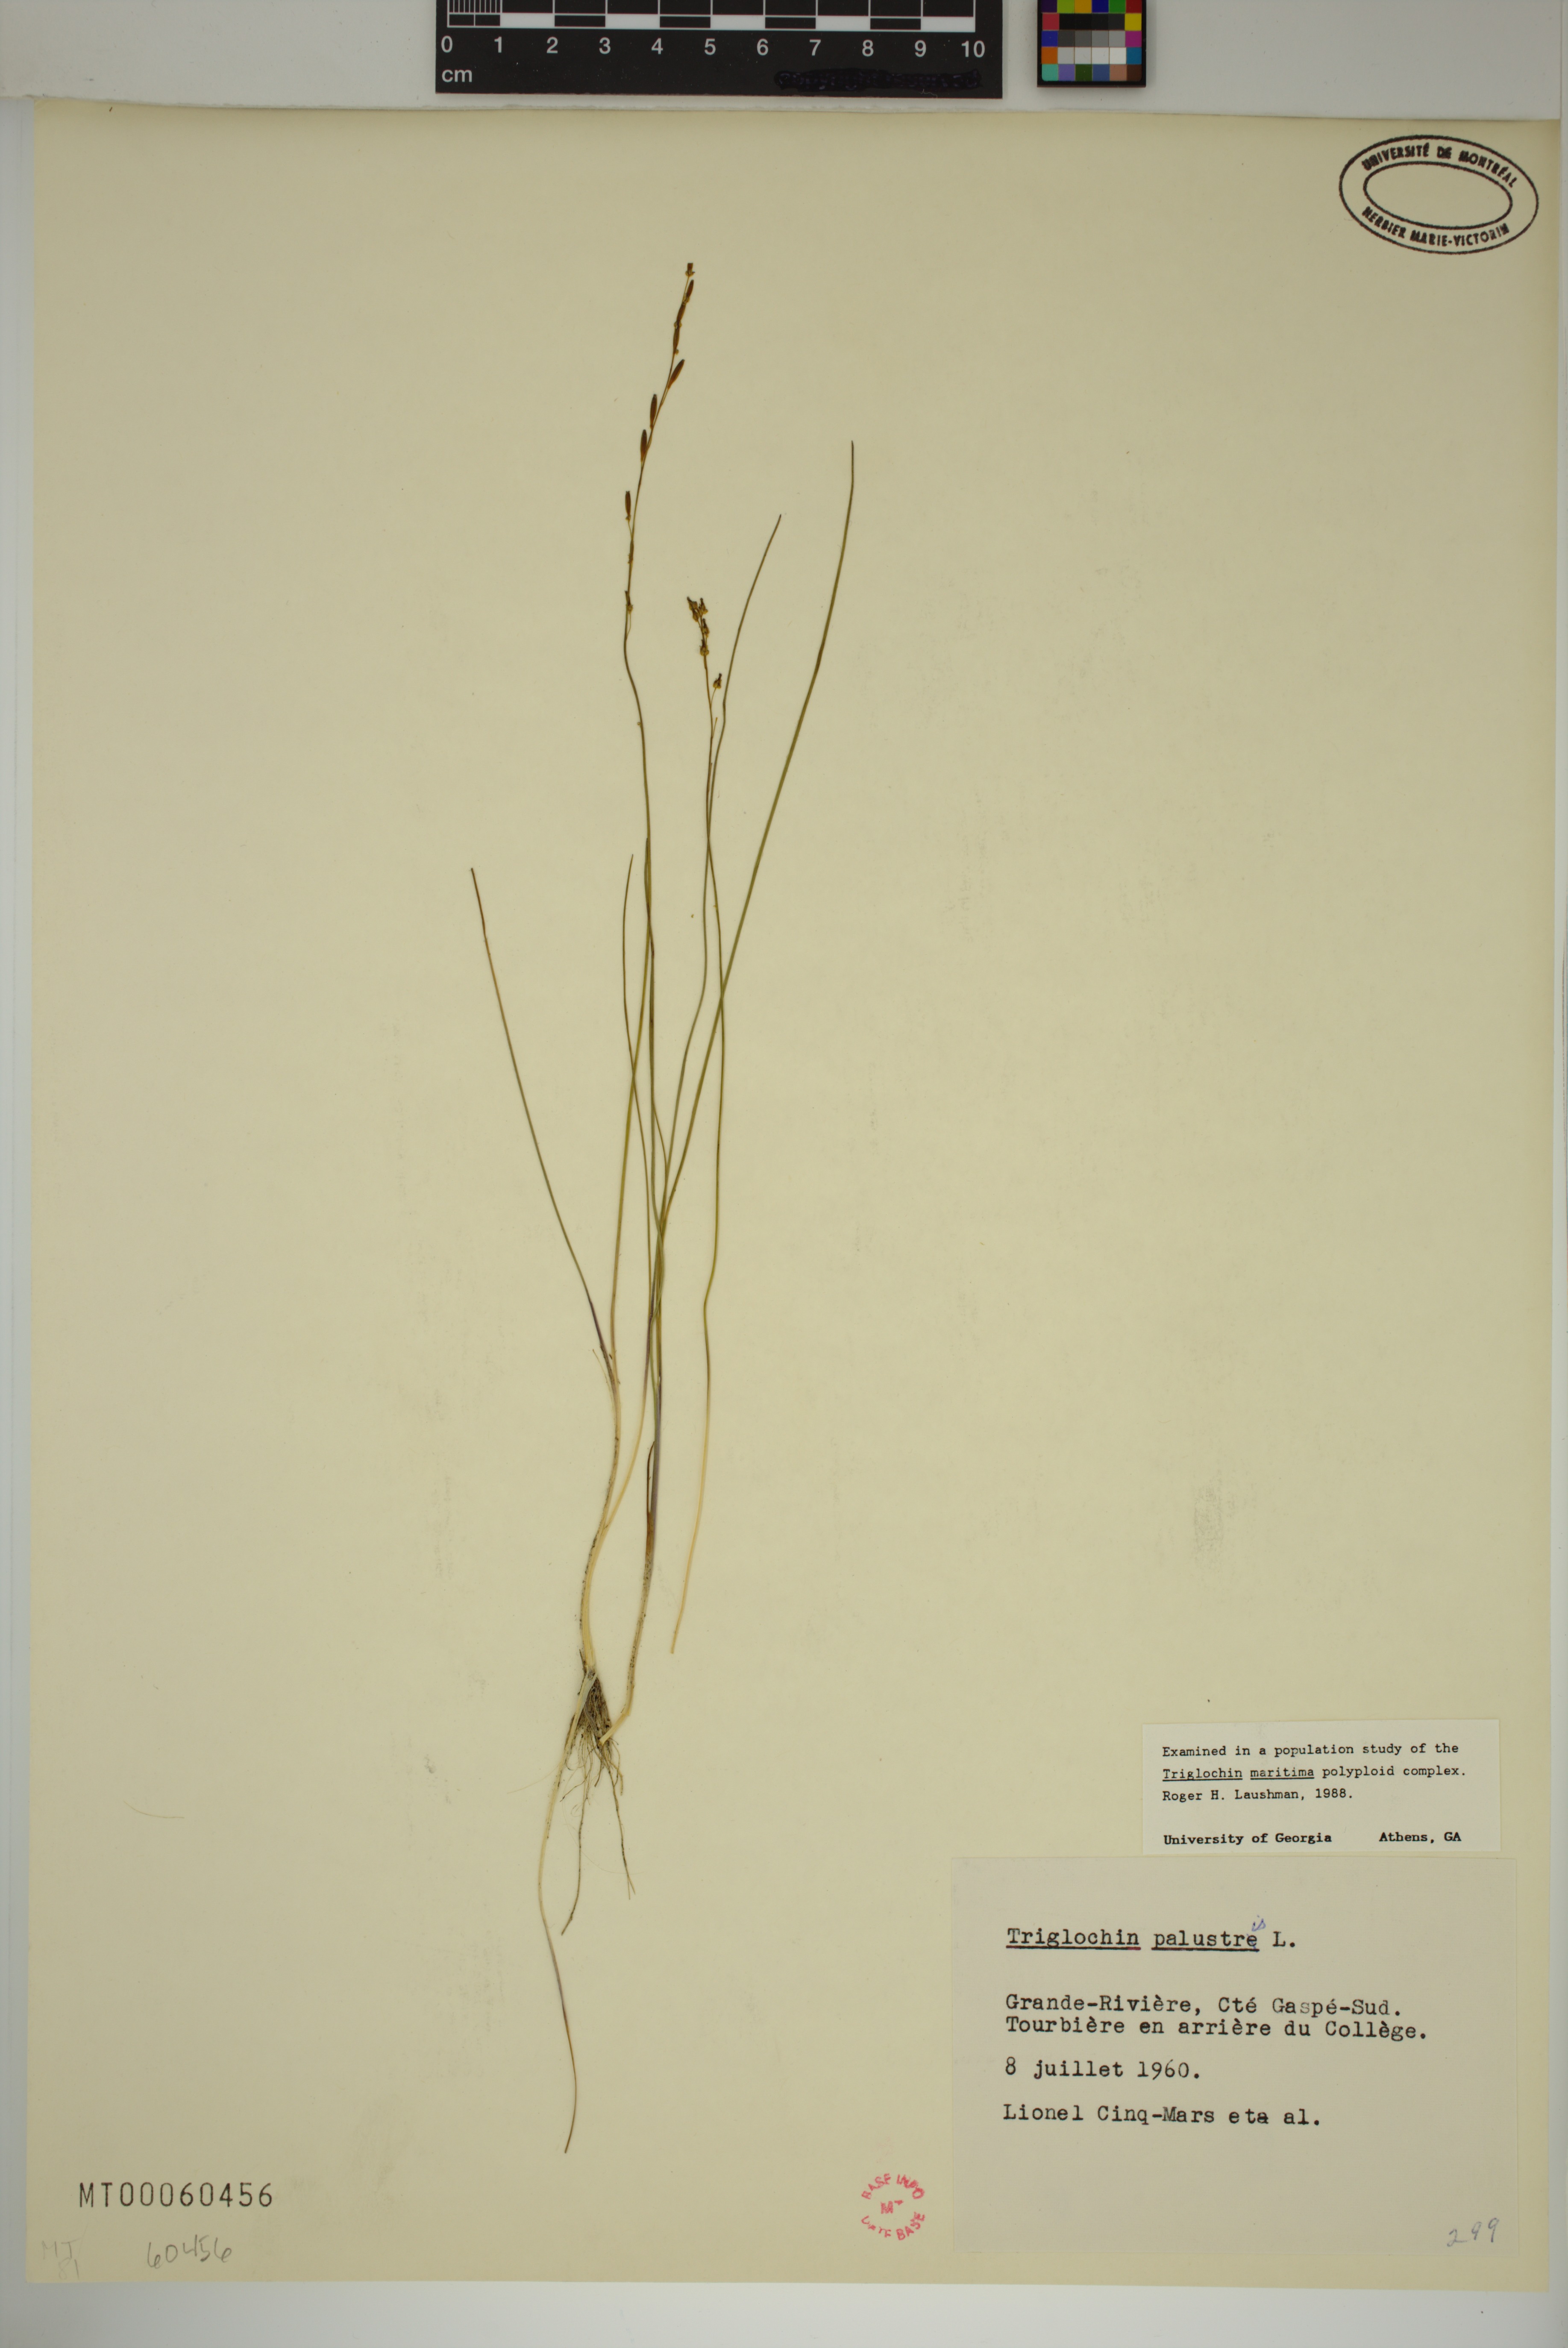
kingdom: Plantae
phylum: Tracheophyta
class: Liliopsida
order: Alismatales
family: Juncaginaceae
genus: Triglochin
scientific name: Triglochin palustris
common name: Marsh arrowgrass
